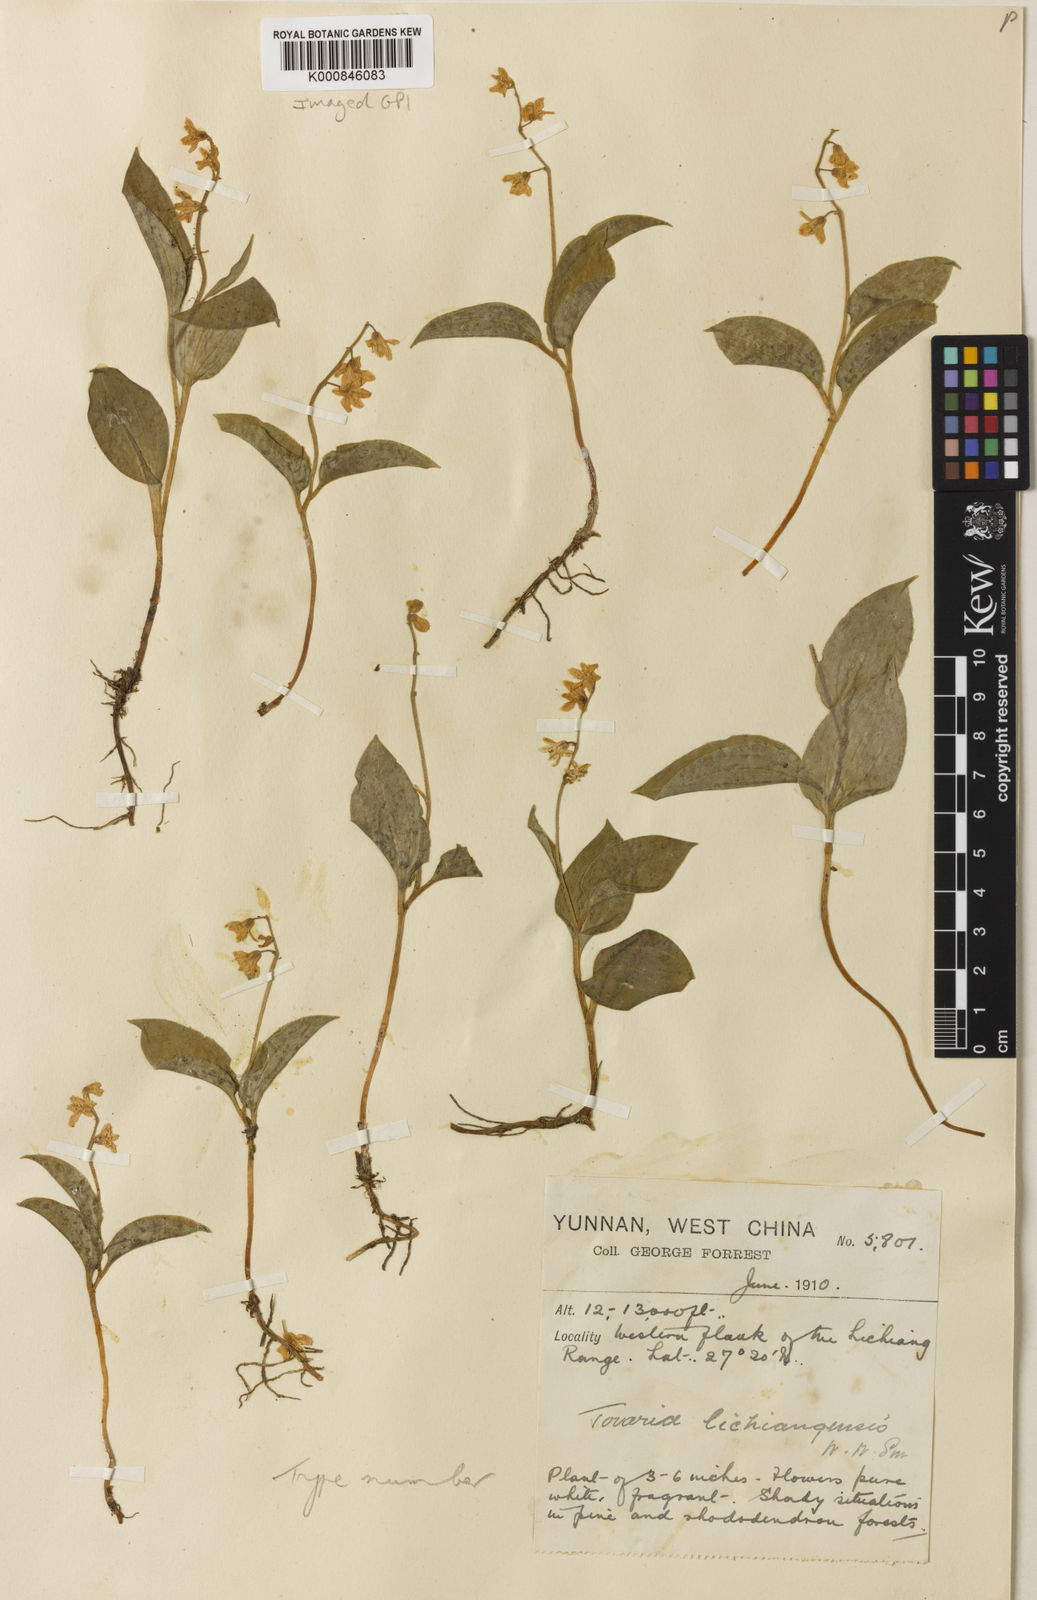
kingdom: Plantae
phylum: Tracheophyta
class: Liliopsida
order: Asparagales
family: Asparagaceae
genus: Maianthemum
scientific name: Maianthemum lichiangense
